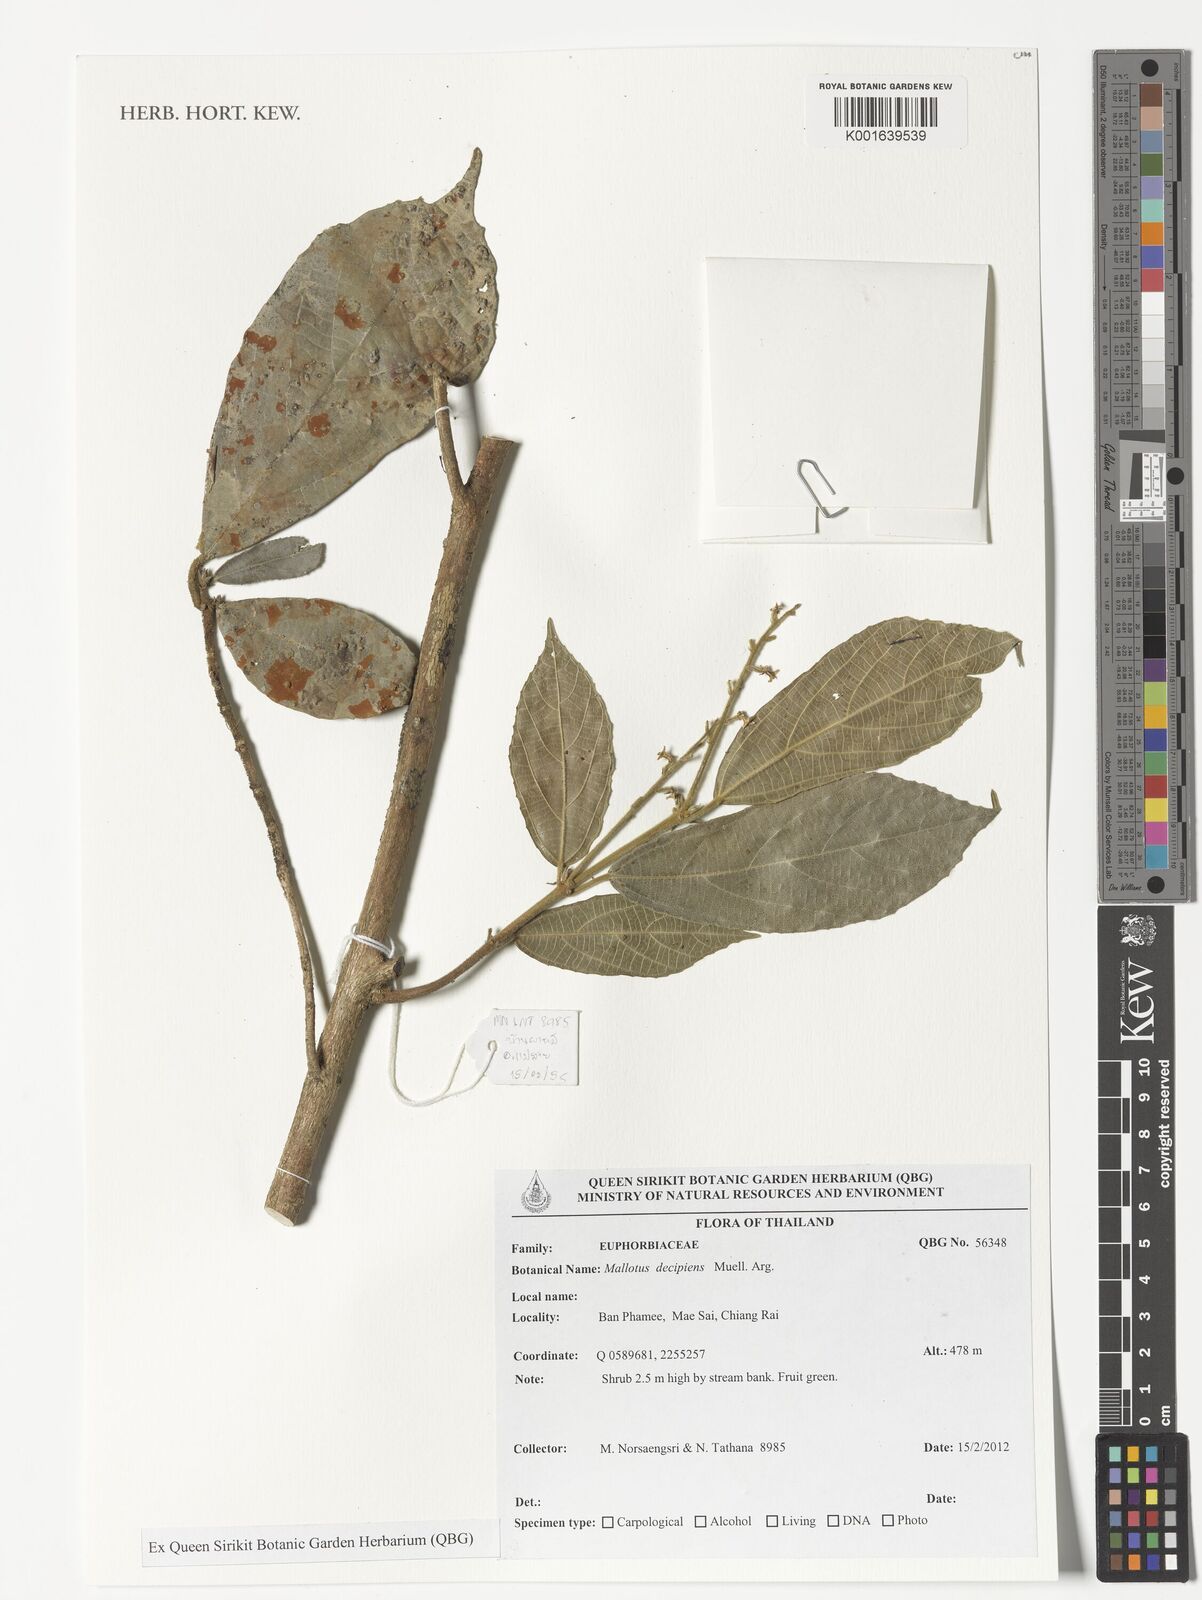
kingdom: Plantae
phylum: Tracheophyta
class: Magnoliopsida
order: Malpighiales
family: Euphorbiaceae
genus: Mallotus
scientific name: Mallotus decipiens
